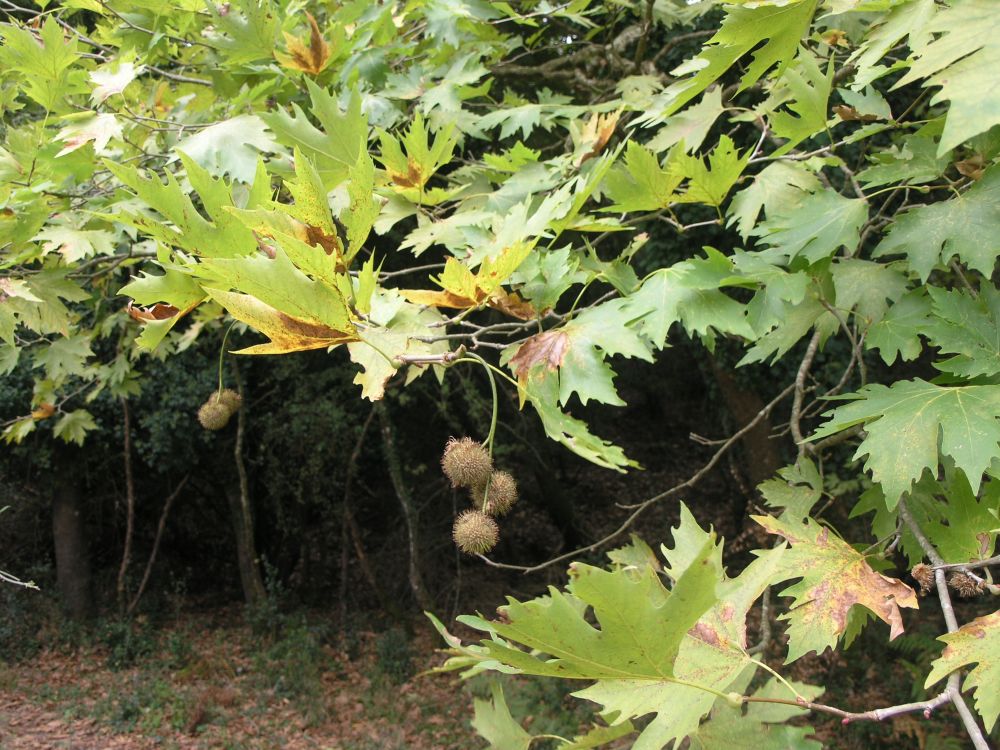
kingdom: Plantae
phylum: Tracheophyta
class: Magnoliopsida
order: Proteales
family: Platanaceae
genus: Platanus
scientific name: Platanus orientalis
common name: Oriental plane
